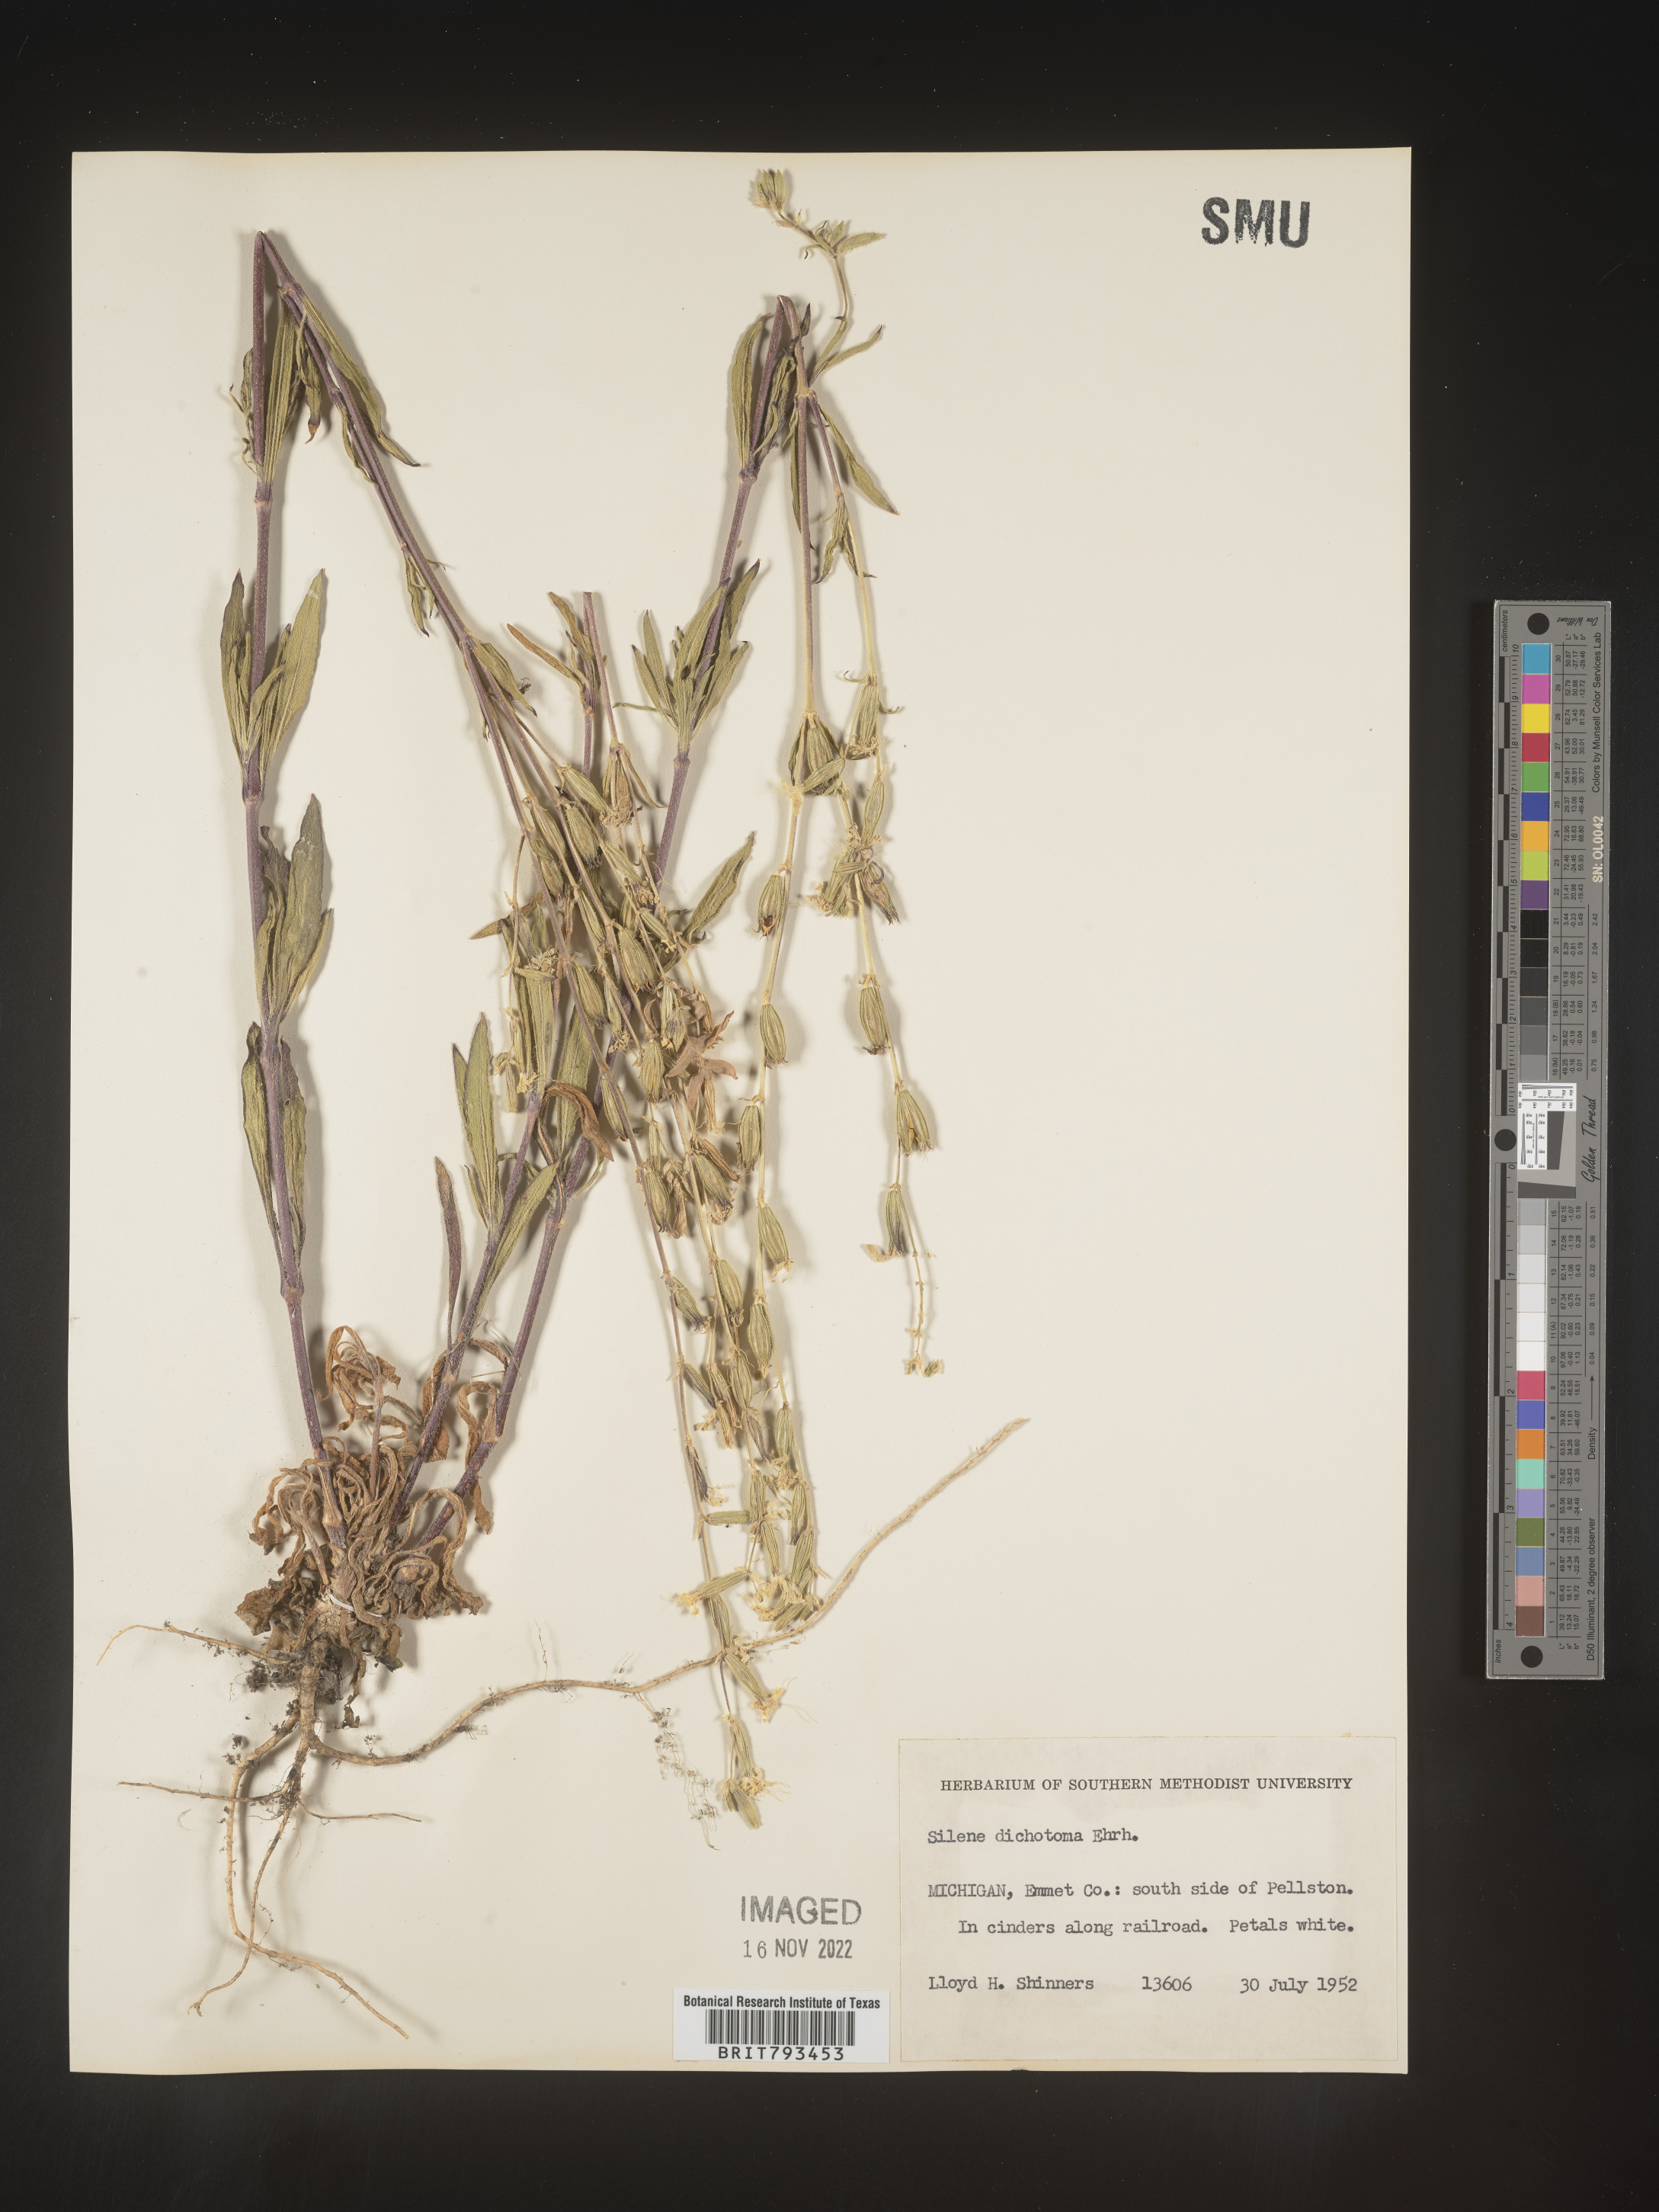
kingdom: Plantae
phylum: Tracheophyta
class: Magnoliopsida
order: Caryophyllales
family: Caryophyllaceae
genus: Silene
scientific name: Silene dichotoma
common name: Forked catchfly
